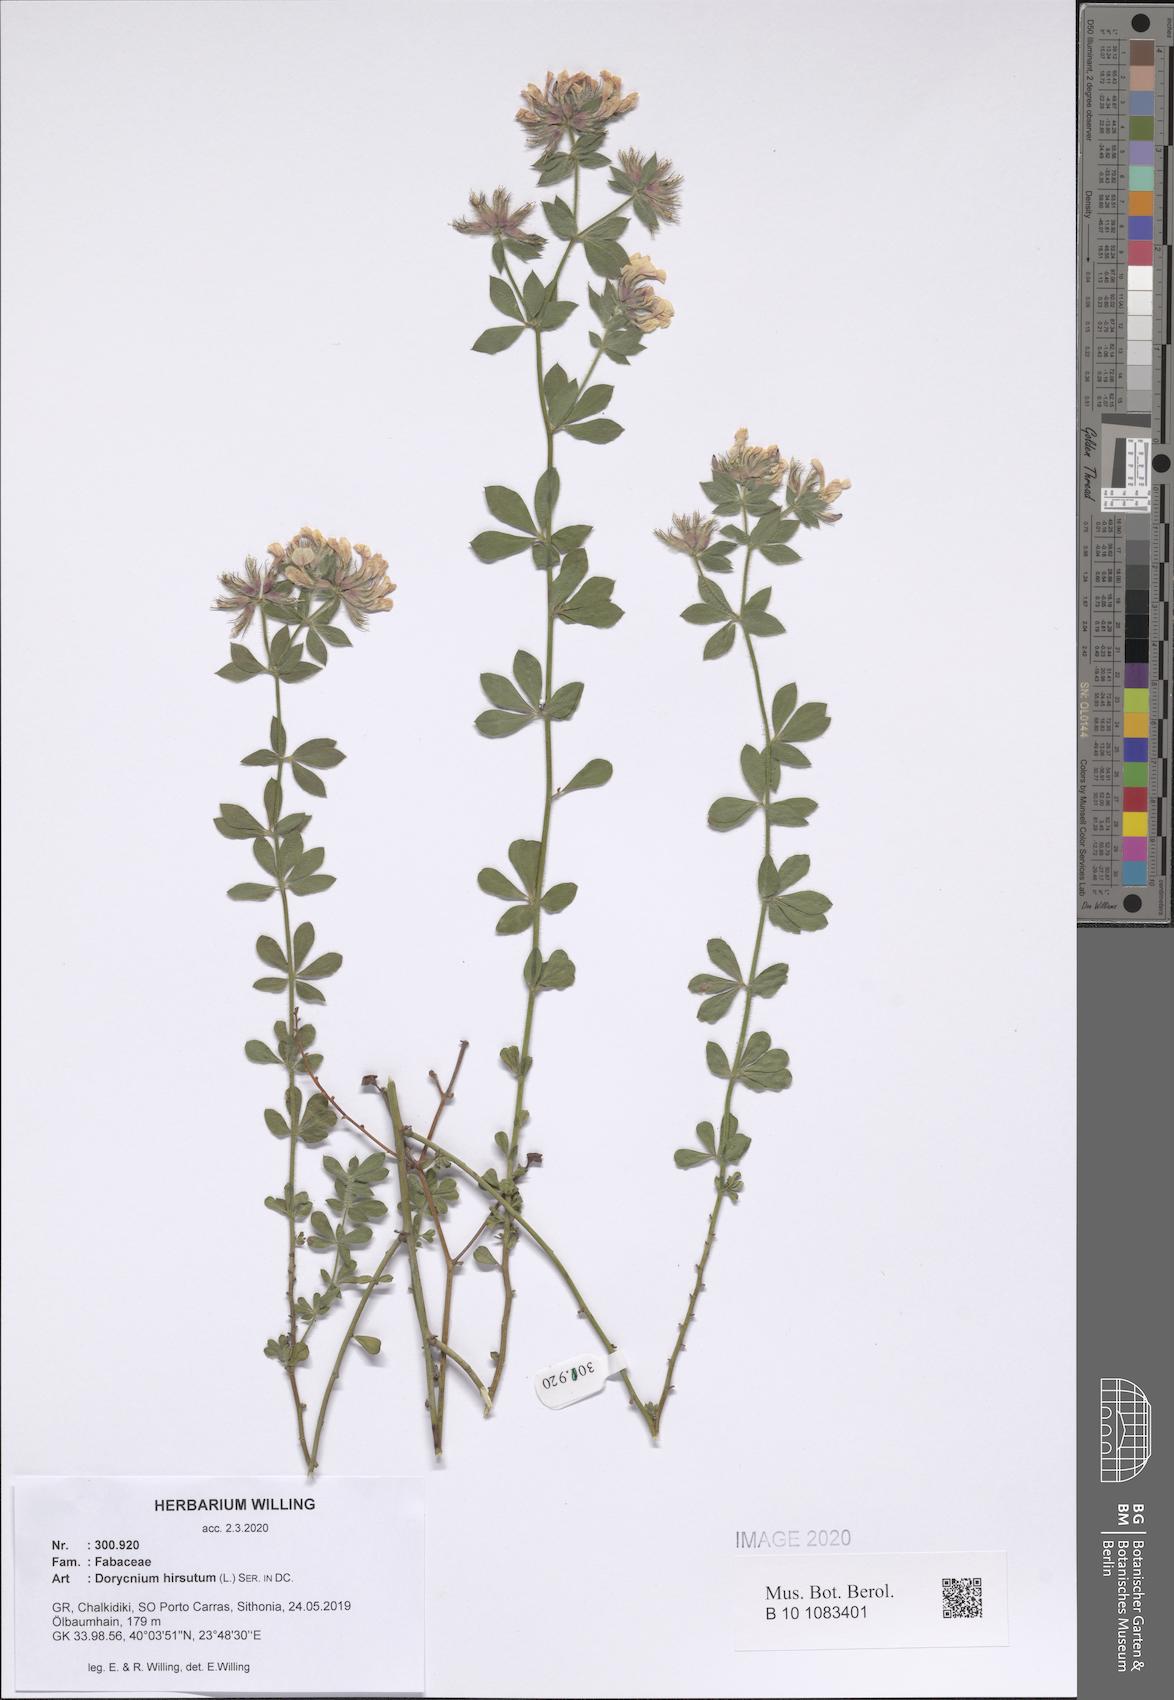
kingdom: Plantae
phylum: Tracheophyta
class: Magnoliopsida
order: Fabales
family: Fabaceae
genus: Lotus
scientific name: Lotus hirsutus
